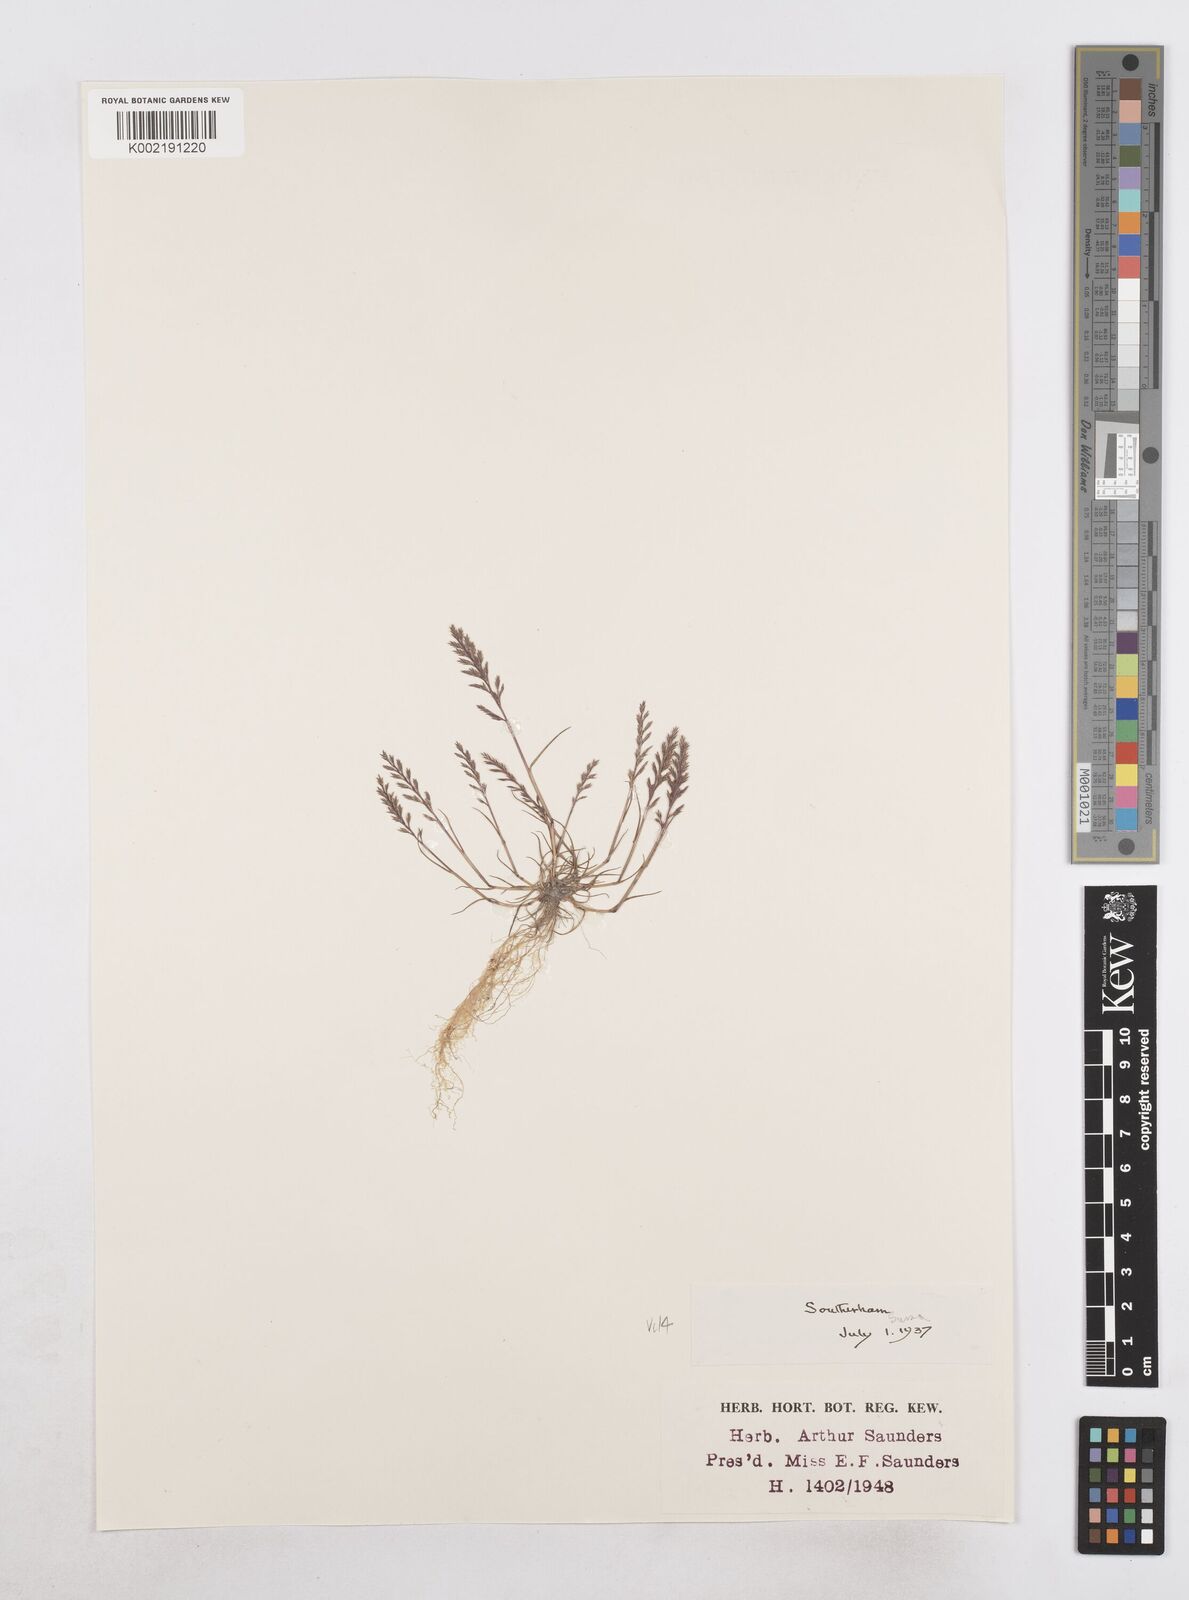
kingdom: Plantae
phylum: Tracheophyta
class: Liliopsida
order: Poales
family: Poaceae
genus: Catapodium
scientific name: Catapodium rigidum
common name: Fern-grass
